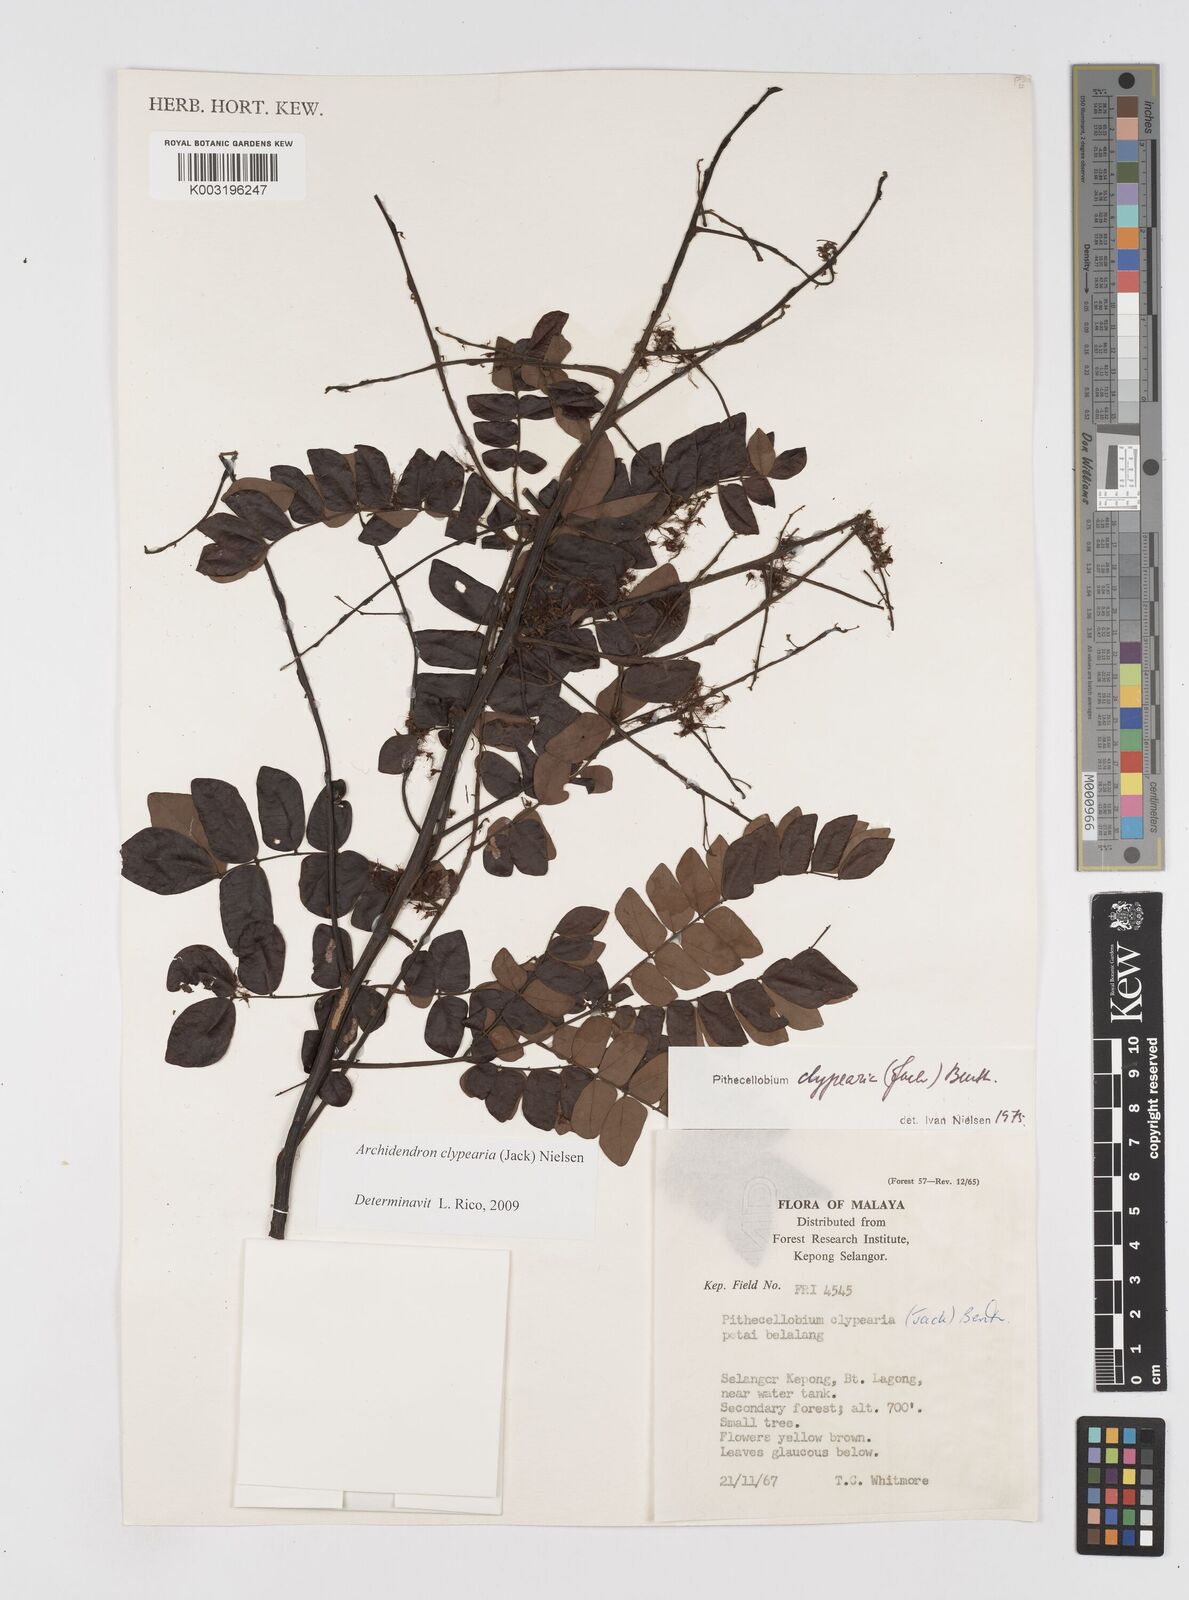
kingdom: Plantae
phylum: Tracheophyta
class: Magnoliopsida
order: Fabales
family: Fabaceae
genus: Archidendron
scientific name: Archidendron clypearia
